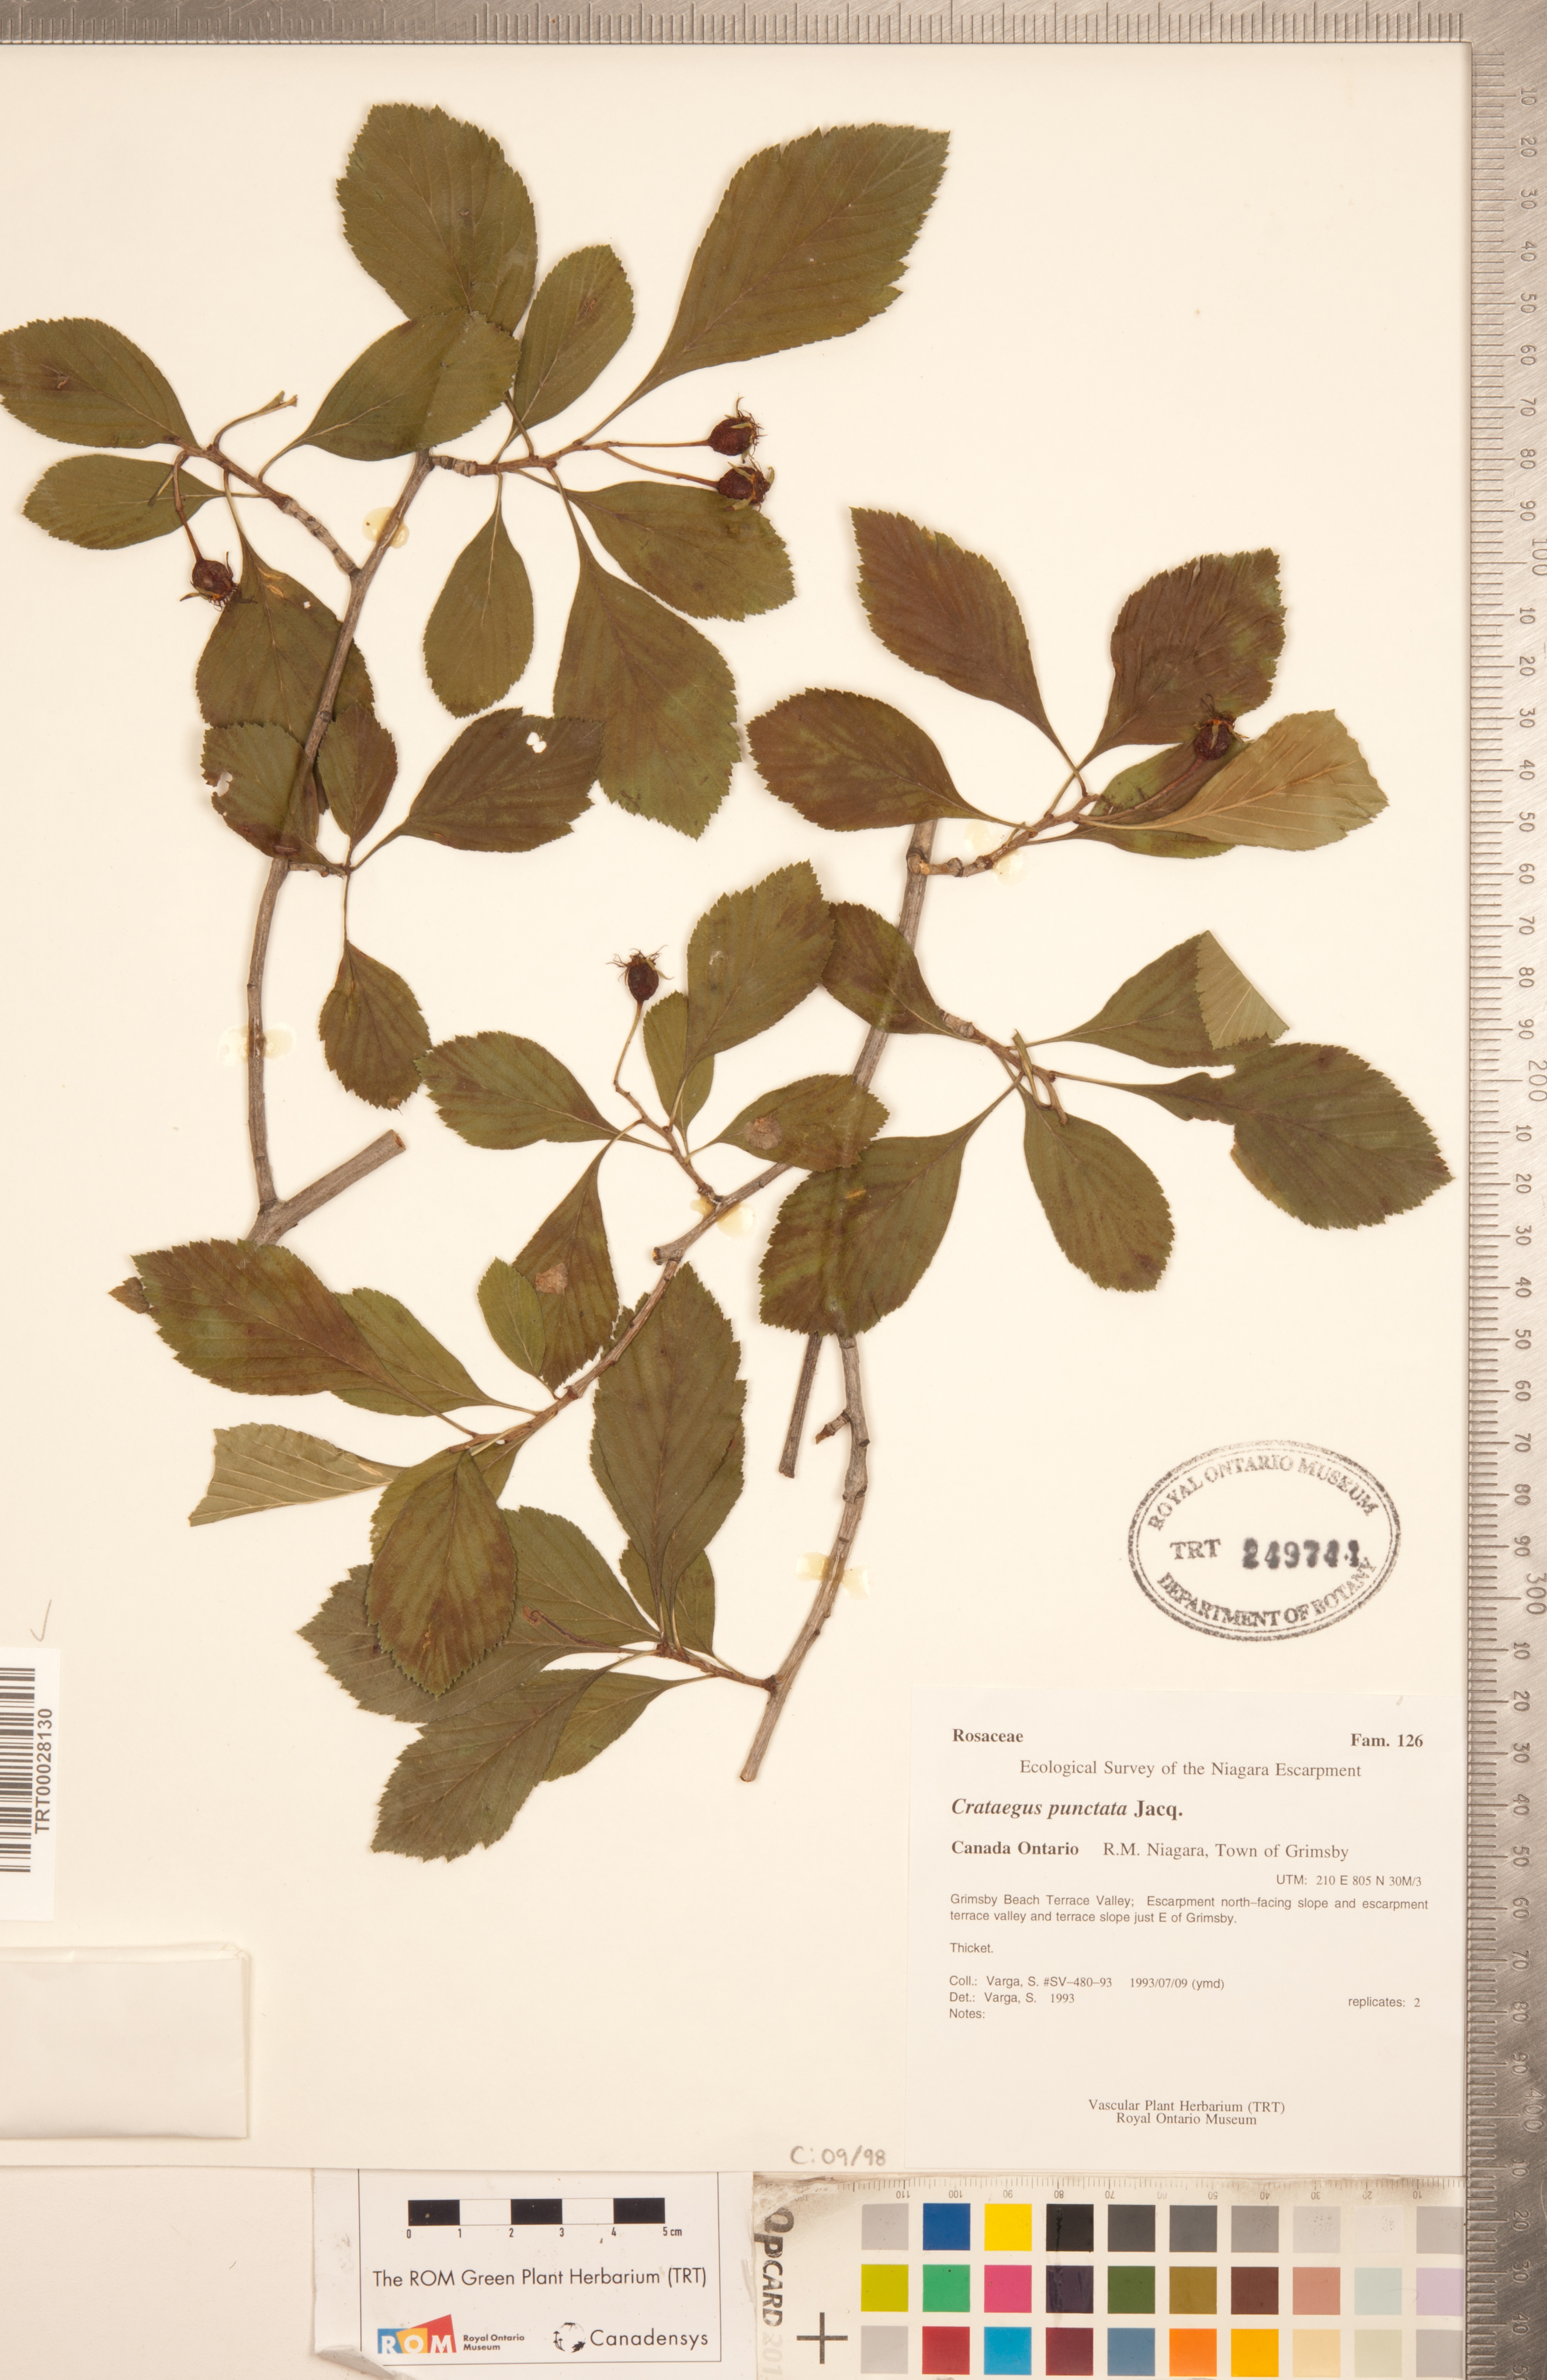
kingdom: Plantae
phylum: Tracheophyta
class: Magnoliopsida
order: Rosales
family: Rosaceae
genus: Crataegus
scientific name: Crataegus punctata
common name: Dotted hawthorn
